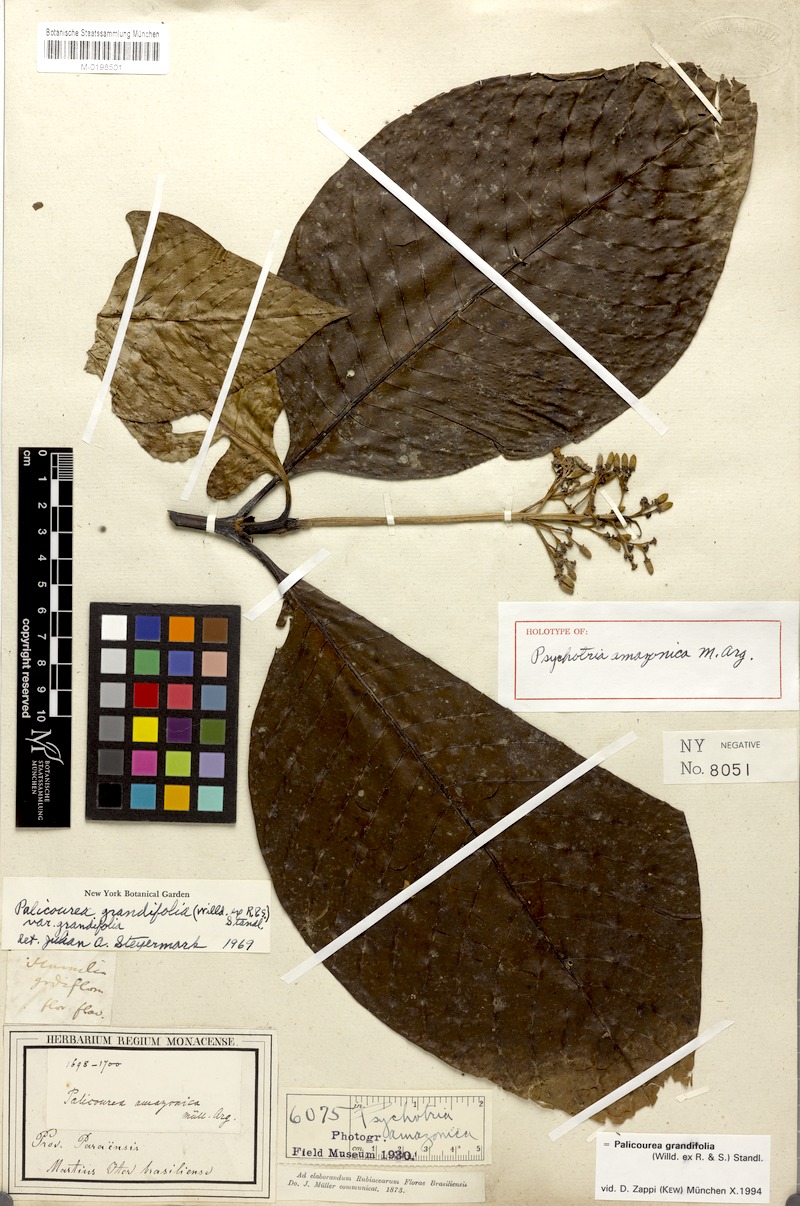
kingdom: Plantae
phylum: Tracheophyta
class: Magnoliopsida
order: Gentianales
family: Rubiaceae
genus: Palicourea
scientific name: Palicourea grandifolia
